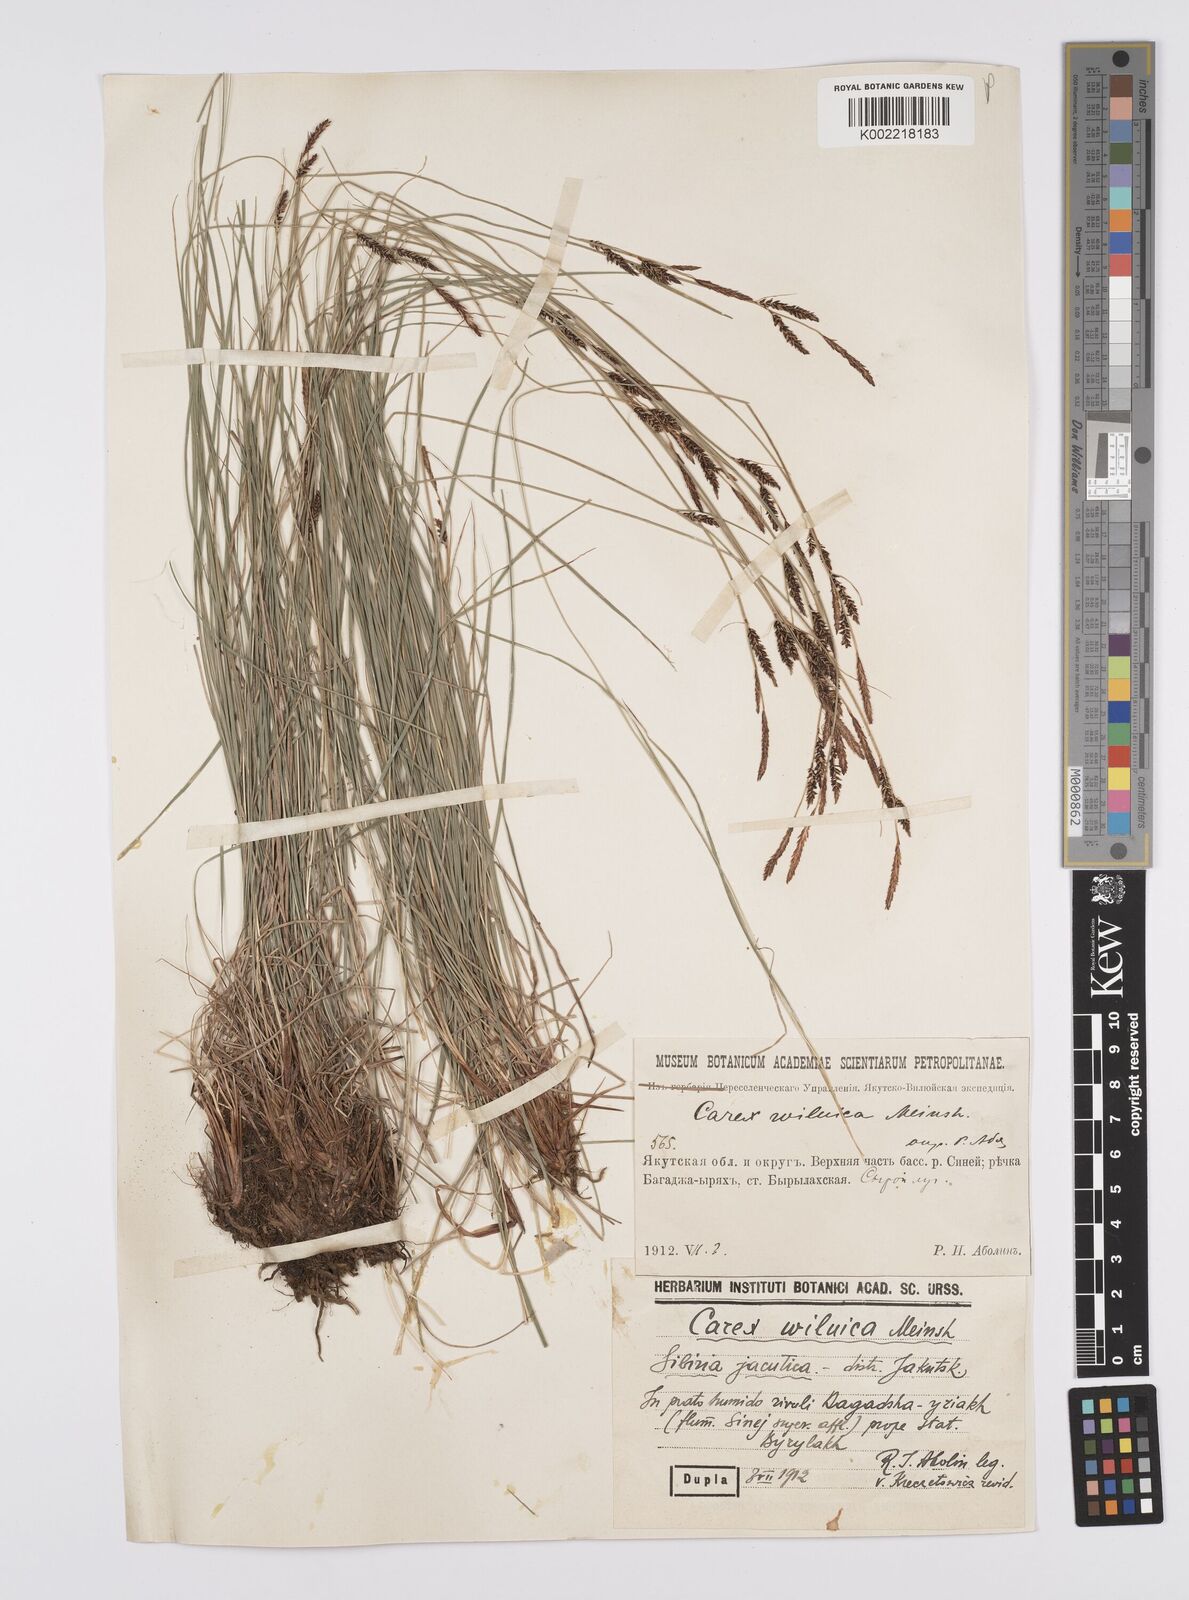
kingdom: Plantae
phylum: Tracheophyta
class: Liliopsida
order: Poales
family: Cyperaceae
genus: Carex
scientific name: Carex nigra
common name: Common sedge
